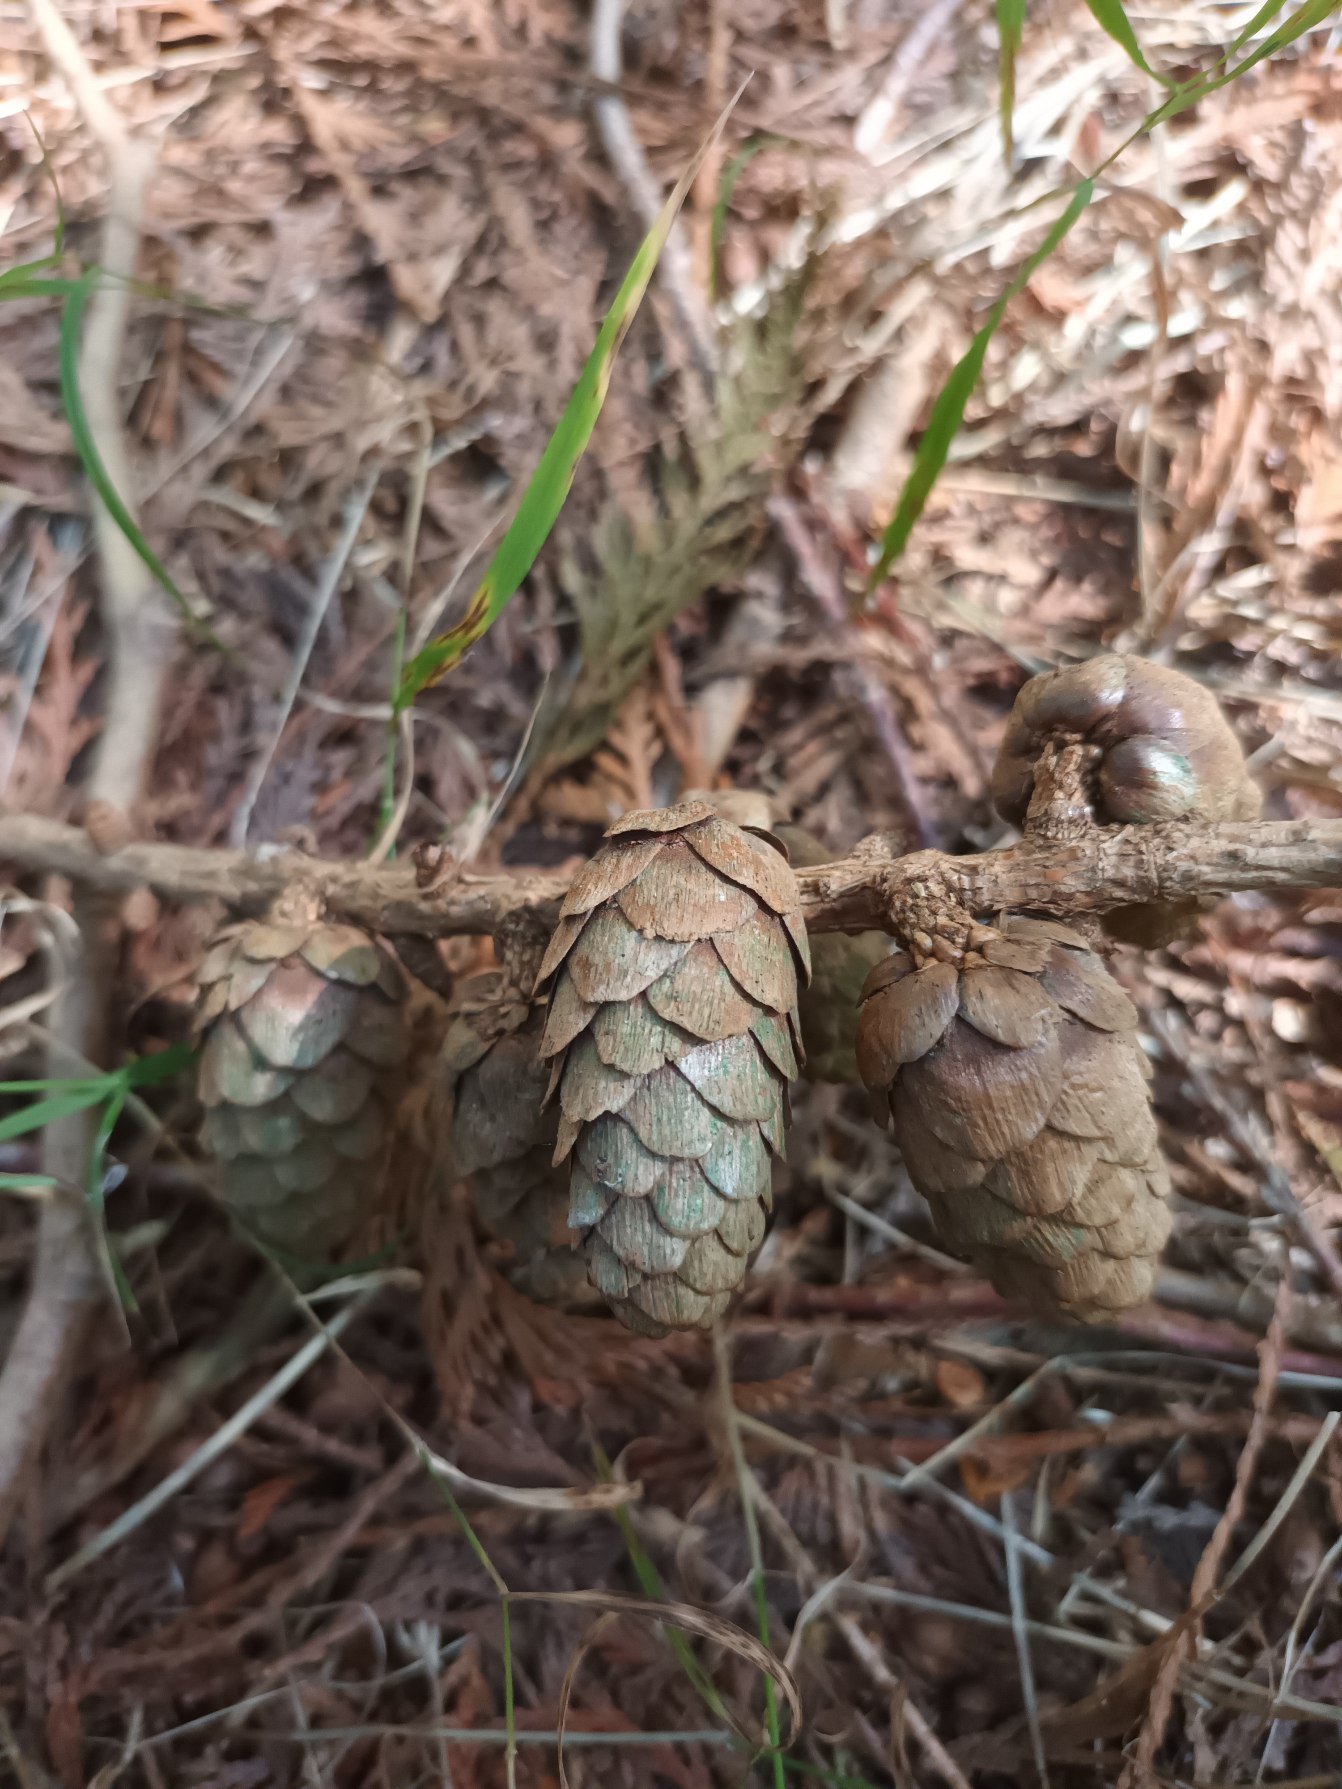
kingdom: Plantae
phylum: Tracheophyta
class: Pinopsida
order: Pinales
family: Pinaceae
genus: Larix
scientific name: Larix decidua
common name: Europæisk lærk
